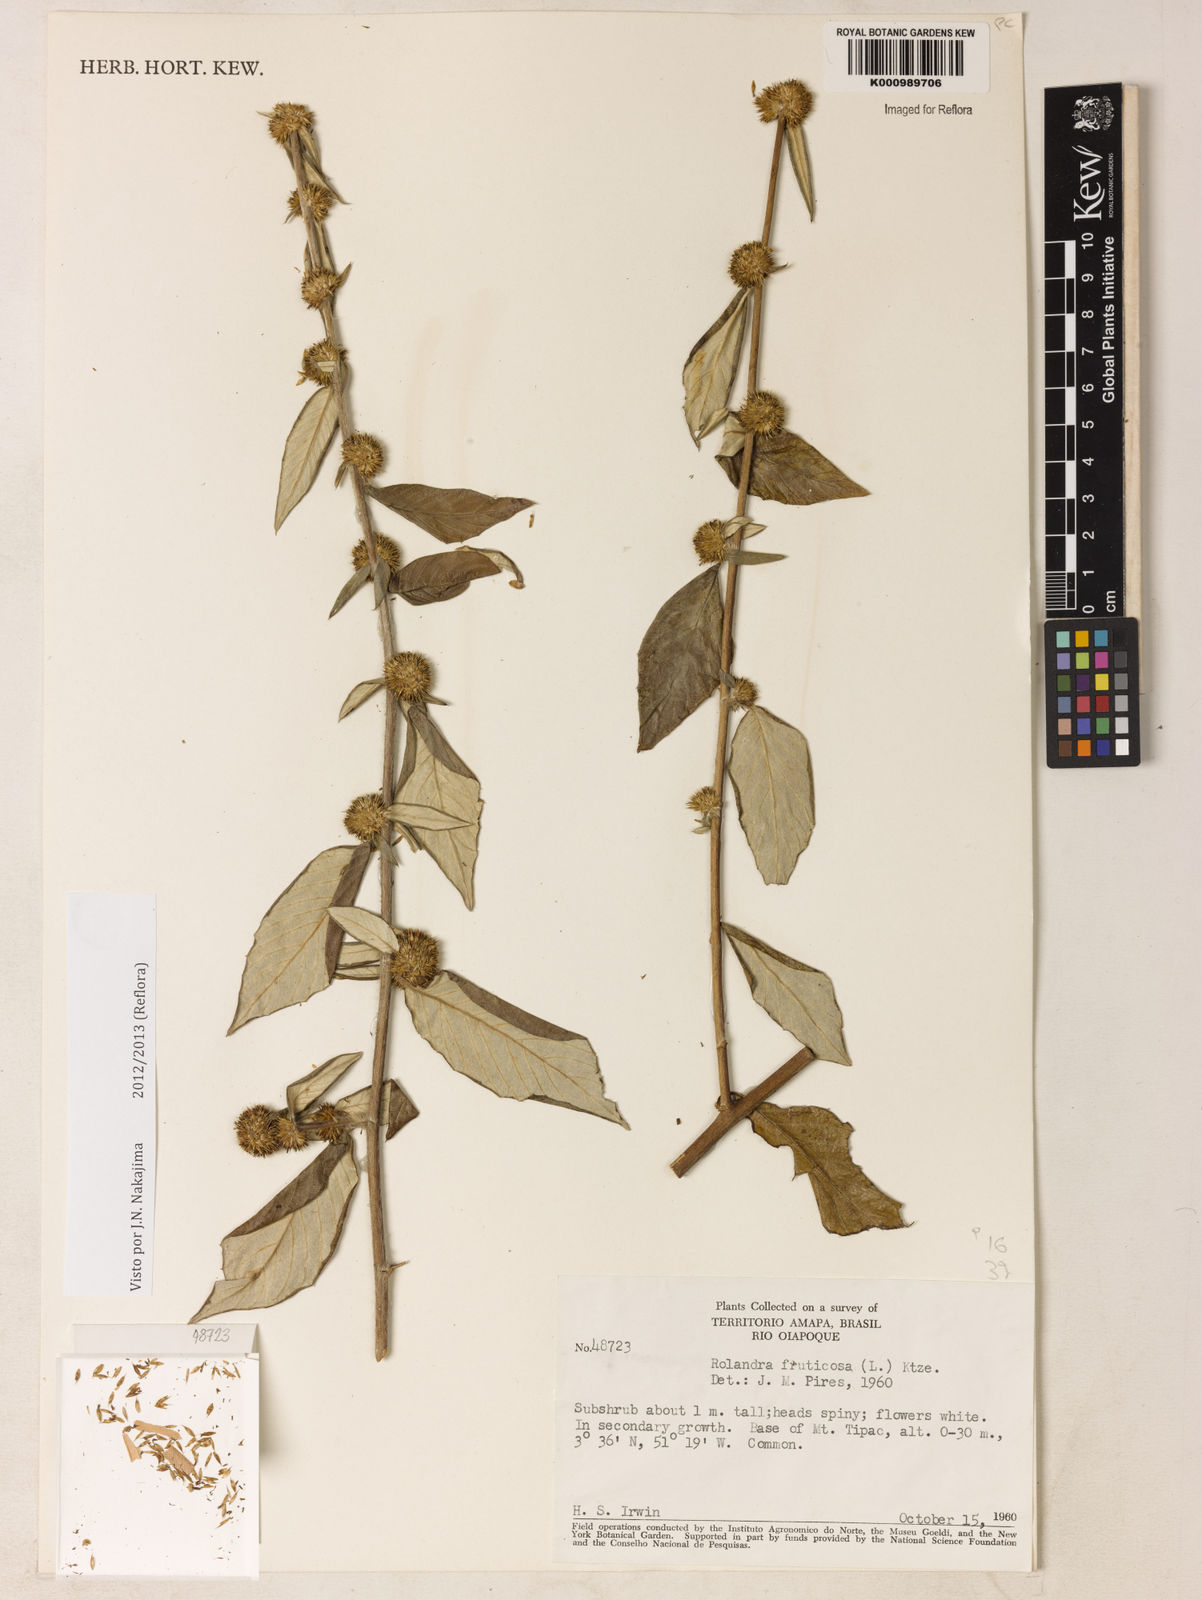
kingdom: Plantae
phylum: Tracheophyta
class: Magnoliopsida
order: Asterales
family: Asteraceae
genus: Rolandra
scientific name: Rolandra fruticosa
